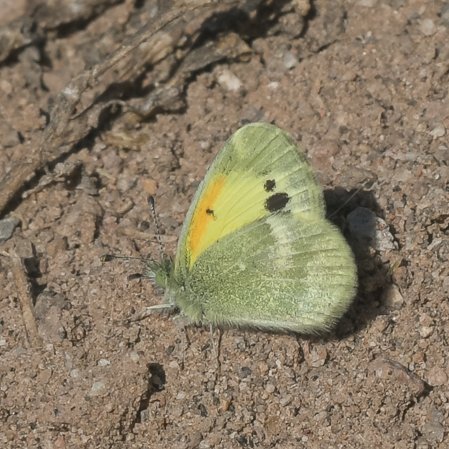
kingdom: Animalia
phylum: Arthropoda
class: Insecta
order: Lepidoptera
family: Pieridae
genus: Nathalis
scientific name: Nathalis iole
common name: Dainty Sulphur
